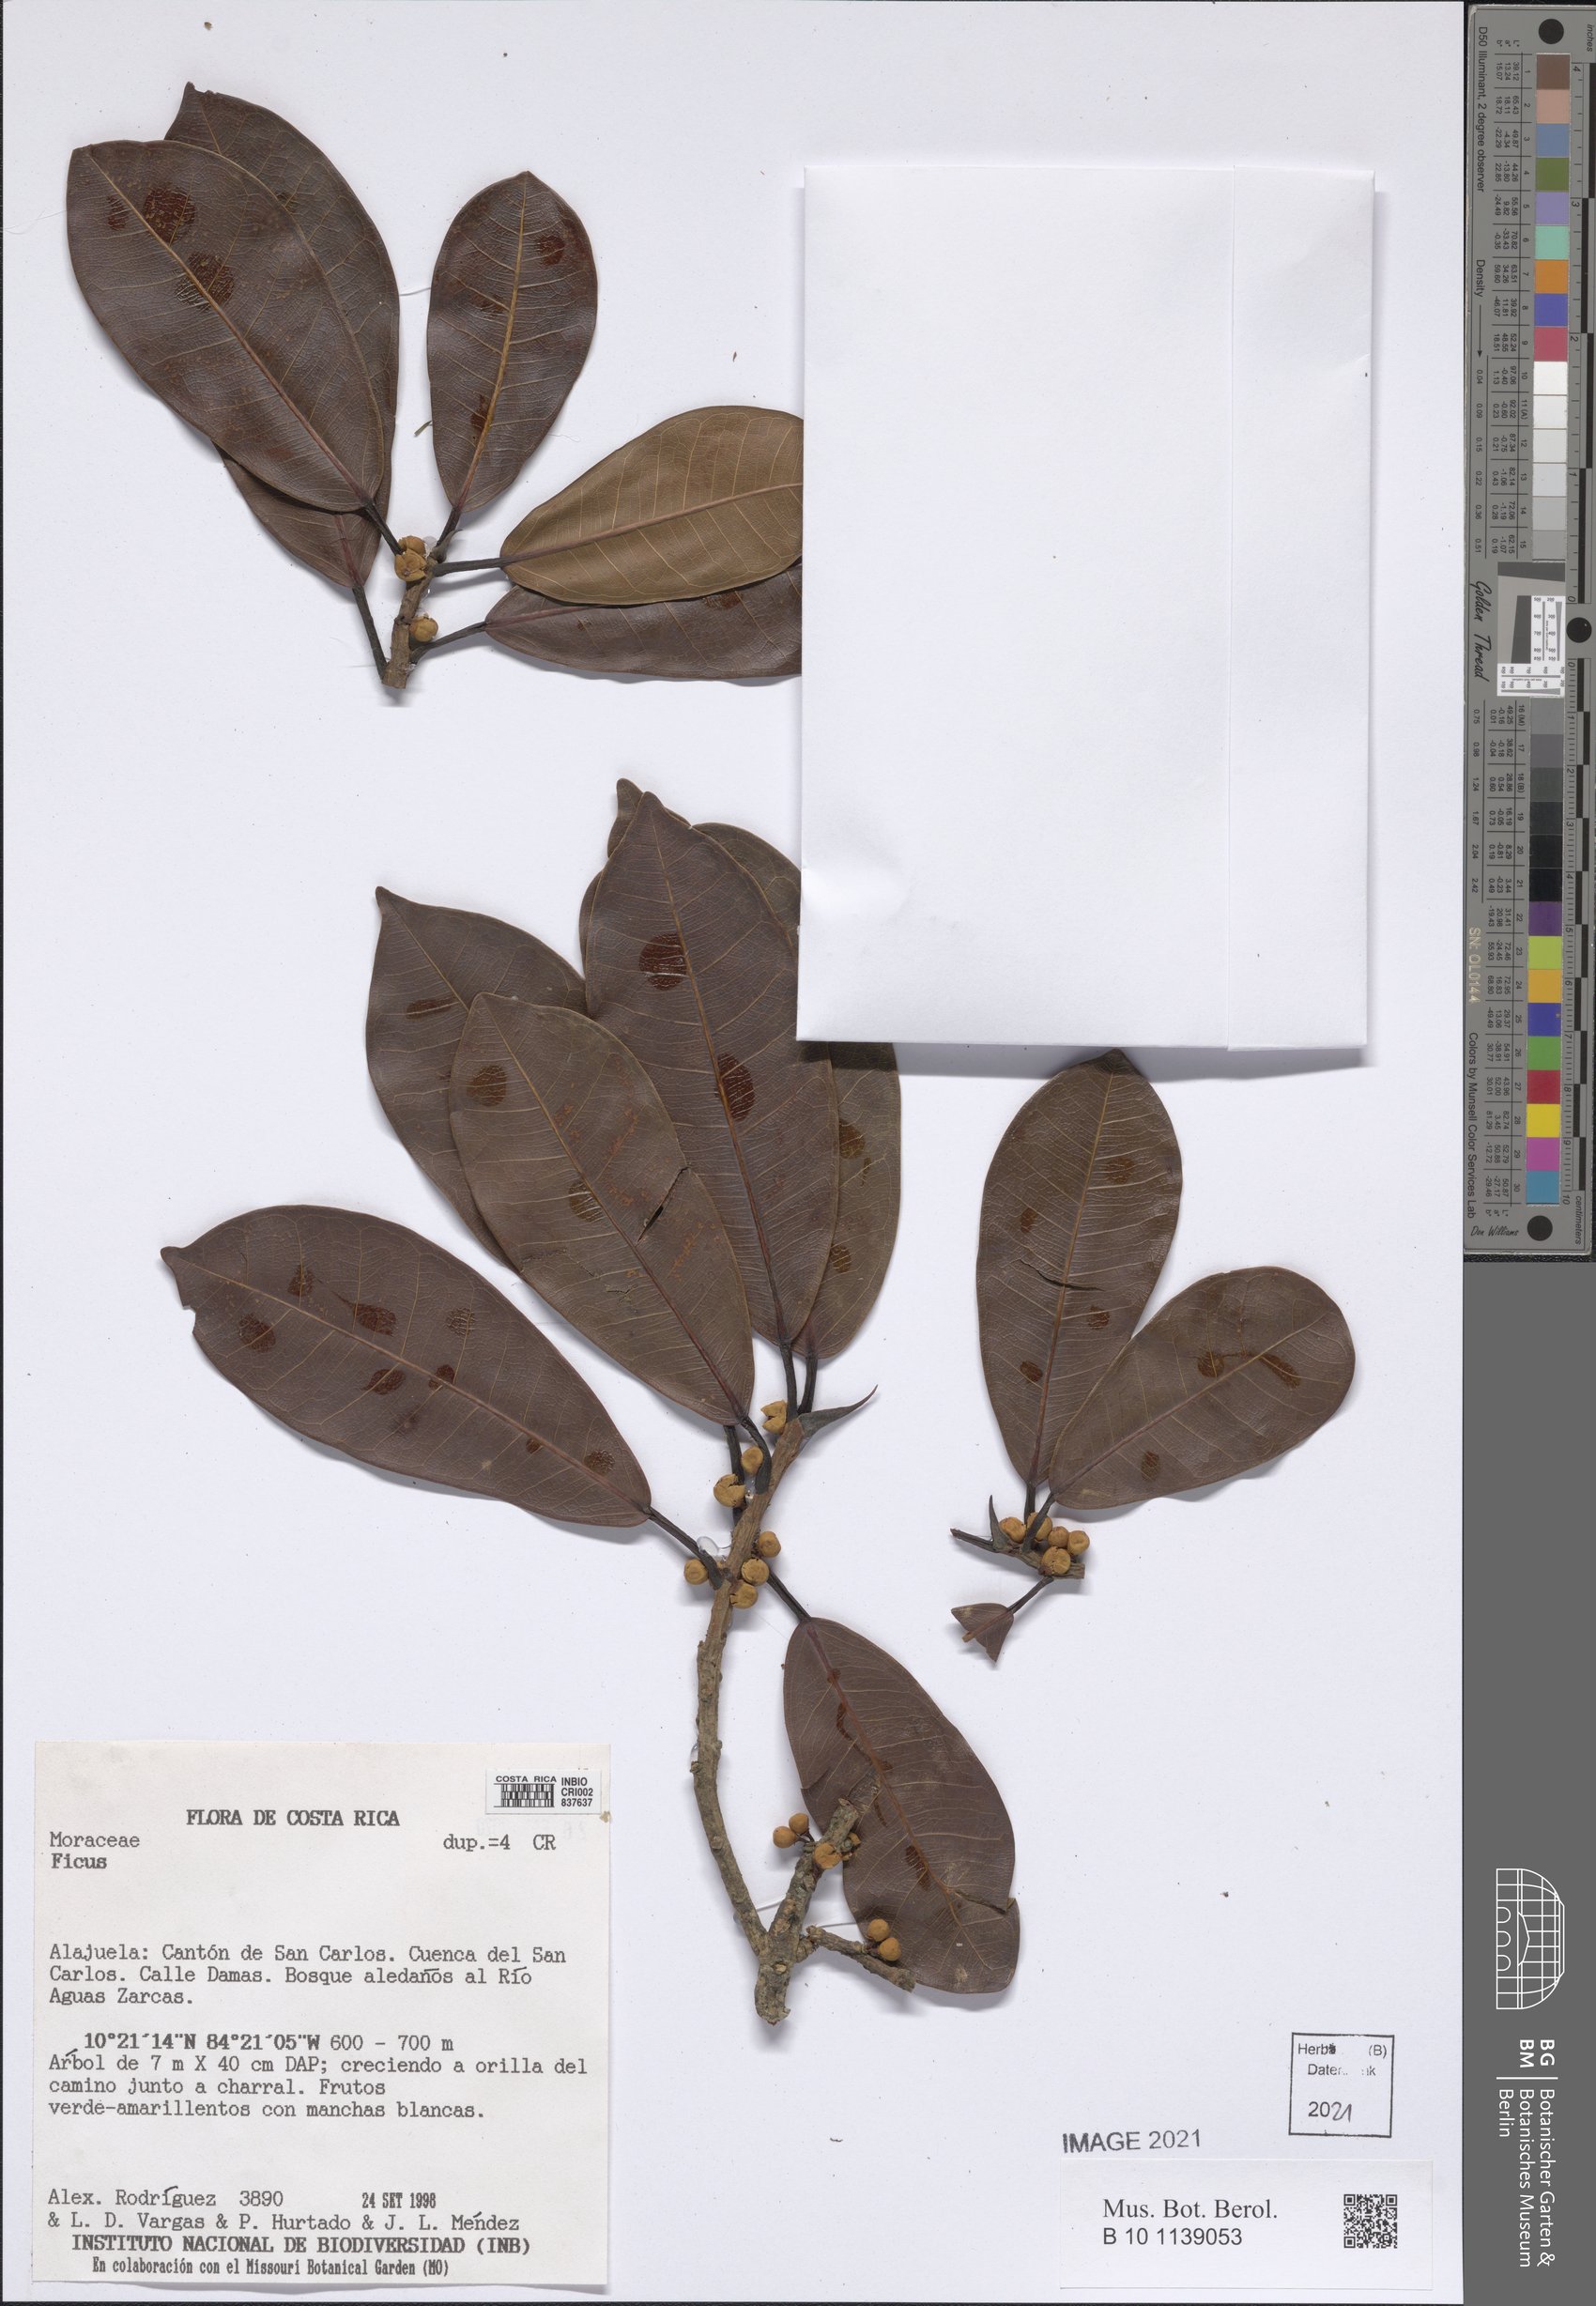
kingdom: Plantae
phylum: Tracheophyta
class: Magnoliopsida
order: Rosales
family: Moraceae
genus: Ficus
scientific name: Ficus
